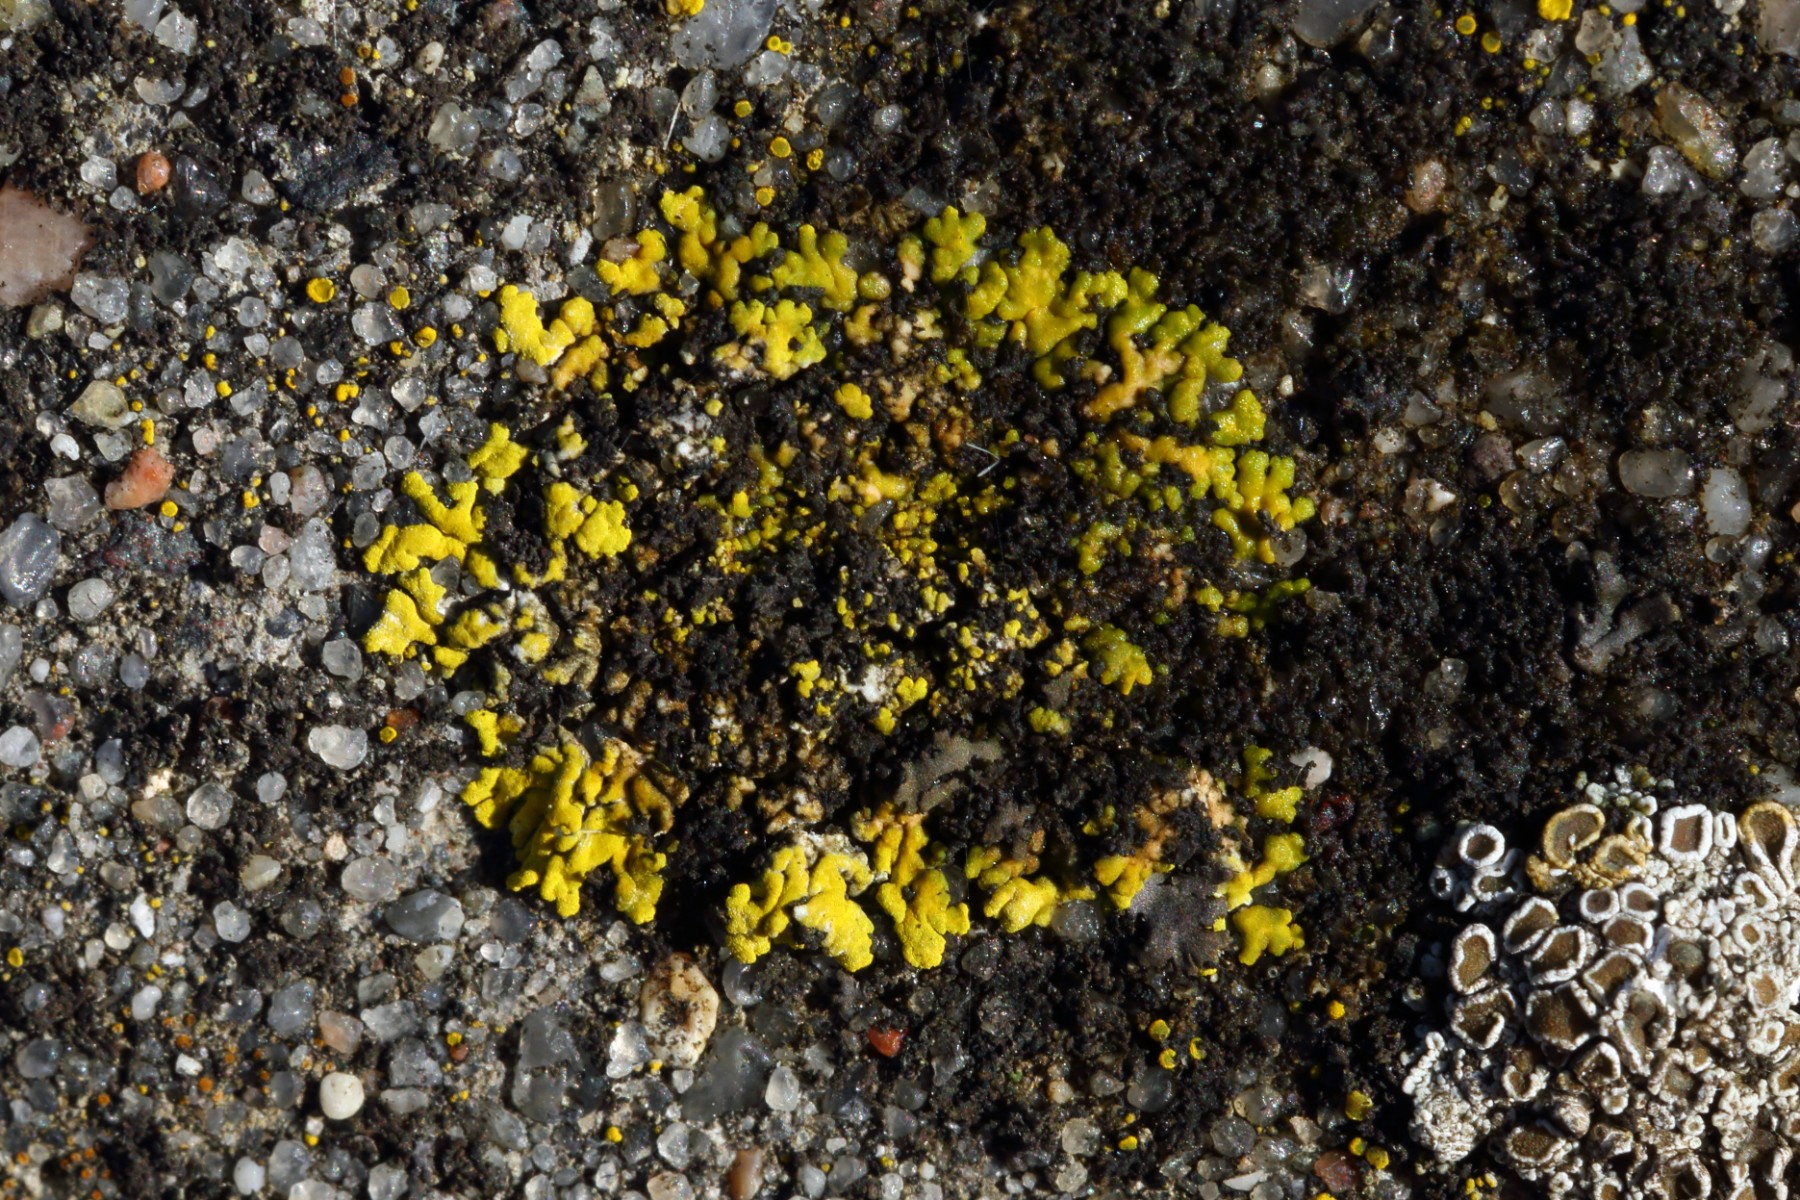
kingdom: Fungi
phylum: Ascomycota
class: Candelariomycetes
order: Candelariales
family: Candelariaceae
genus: Candelariella
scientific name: Candelariella medians
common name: roset-æggeblommelav
